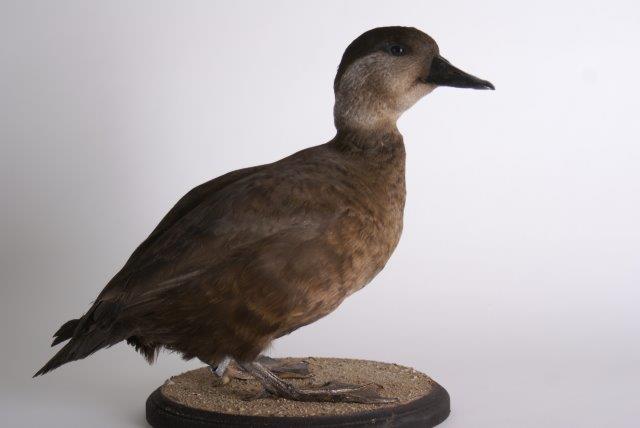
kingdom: Animalia
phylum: Chordata
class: Aves
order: Anseriformes
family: Anatidae
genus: Melanitta
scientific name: Melanitta nigra
